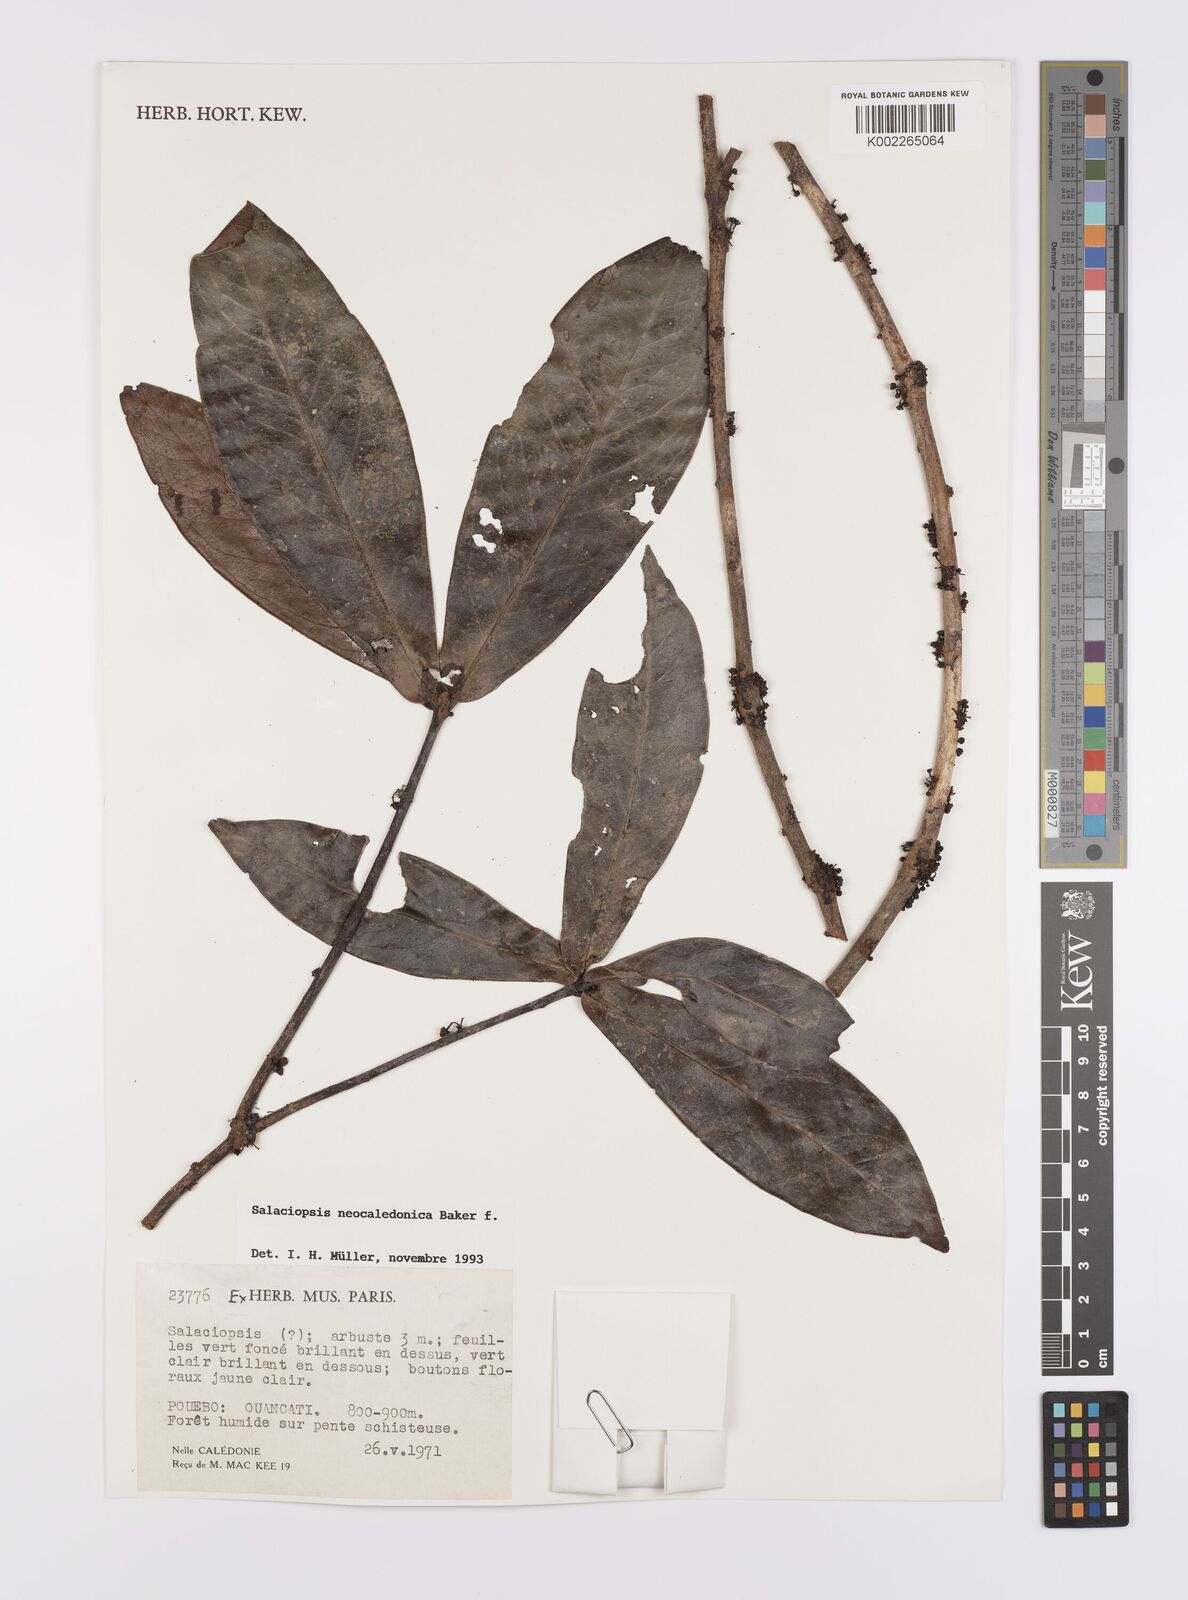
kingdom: Plantae
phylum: Tracheophyta
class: Magnoliopsida
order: Celastrales
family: Celastraceae
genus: Salaciopsis
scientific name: Salaciopsis neocaledonica
